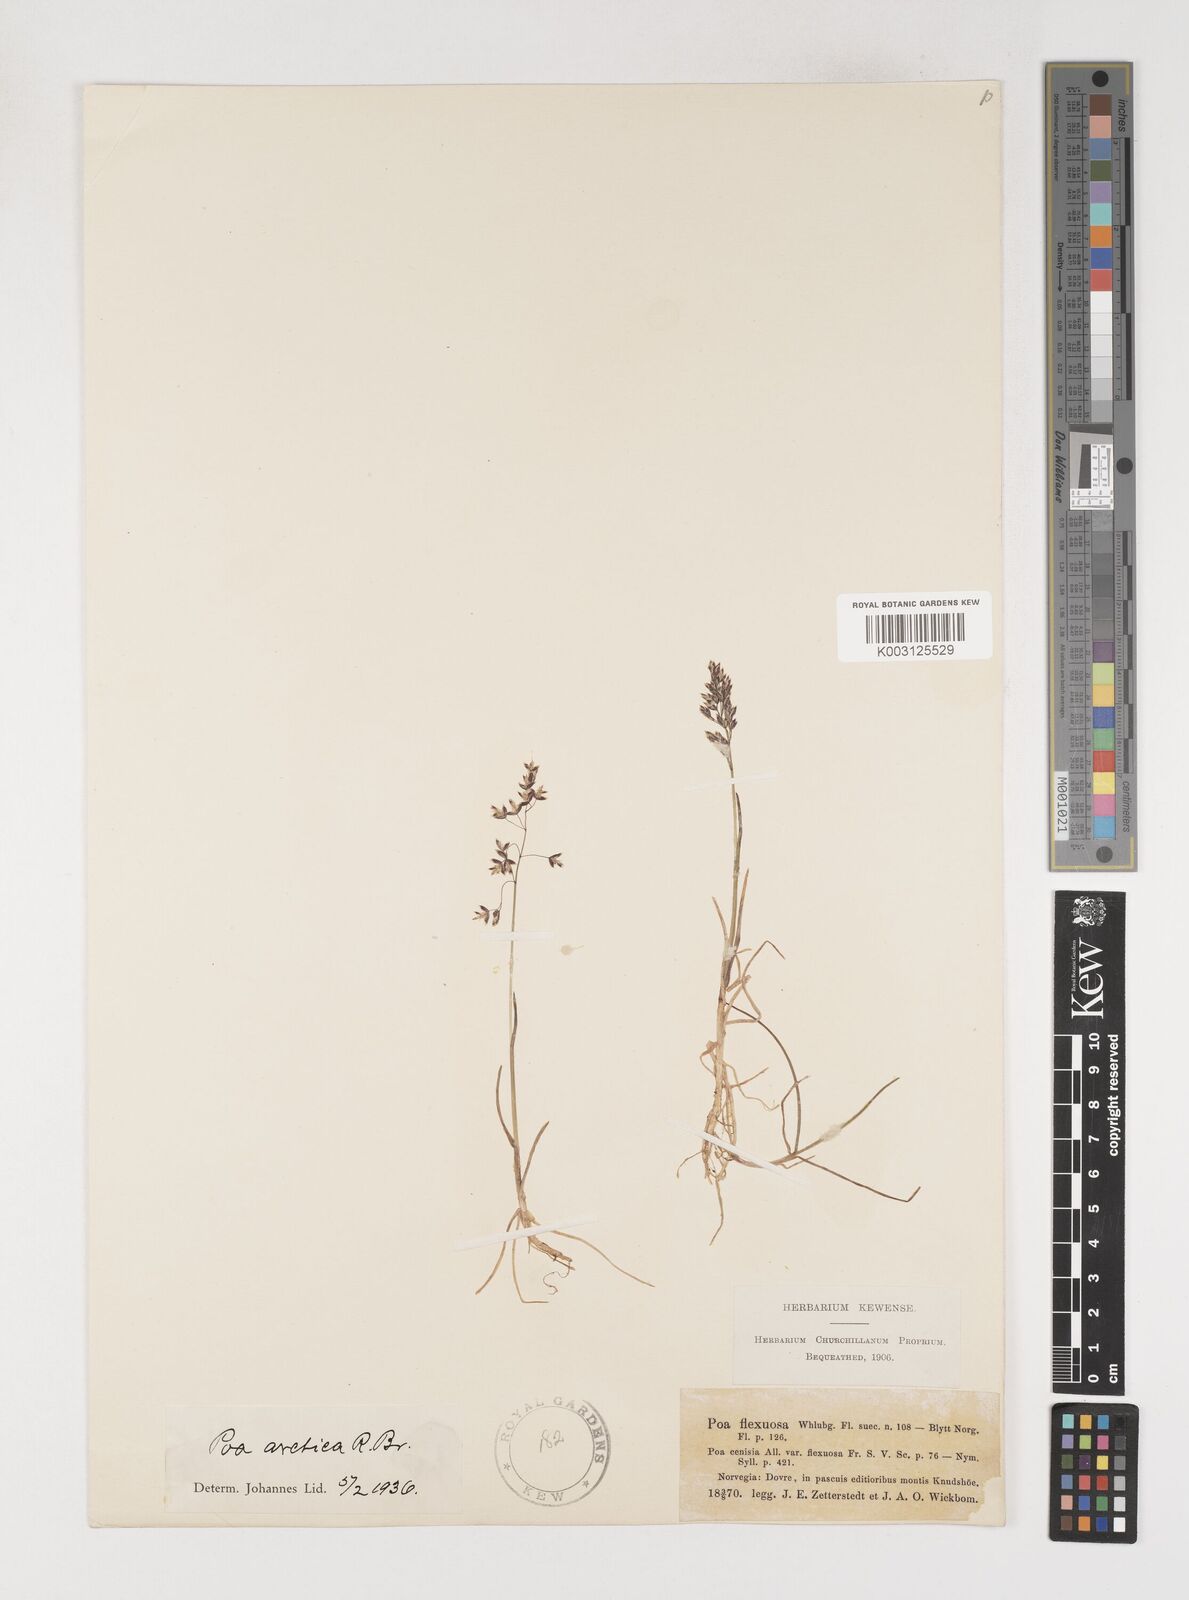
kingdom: Plantae
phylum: Tracheophyta
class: Liliopsida
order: Poales
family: Poaceae
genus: Poa
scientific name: Poa arctica
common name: Arctic bluegrass
